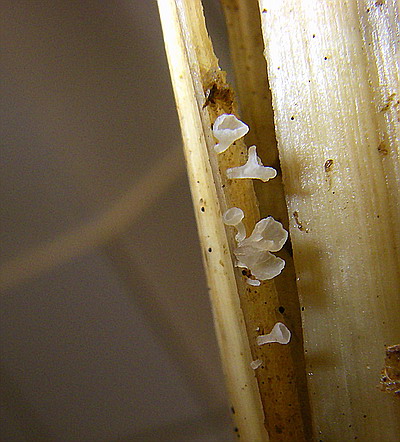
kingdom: Fungi
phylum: Basidiomycota
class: Agaricomycetes
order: Agaricales
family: Marasmiaceae
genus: Calyptella
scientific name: Calyptella capula
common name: hvidlig nældehue
